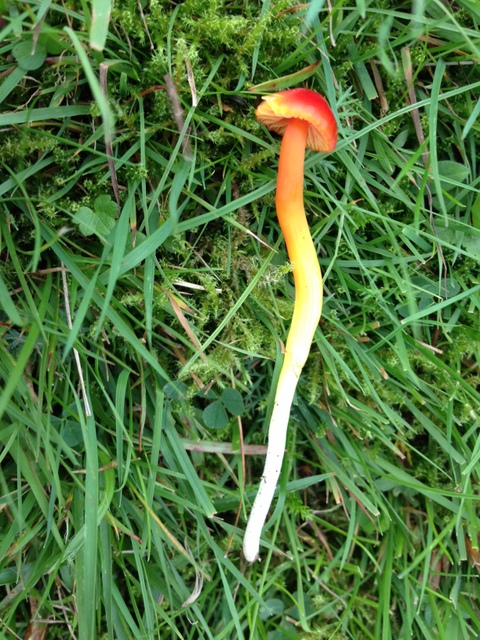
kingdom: Fungi
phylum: Basidiomycota
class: Agaricomycetes
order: Agaricales
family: Hygrophoraceae
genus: Hygrocybe
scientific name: Hygrocybe mucronella
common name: bitter vokshat
